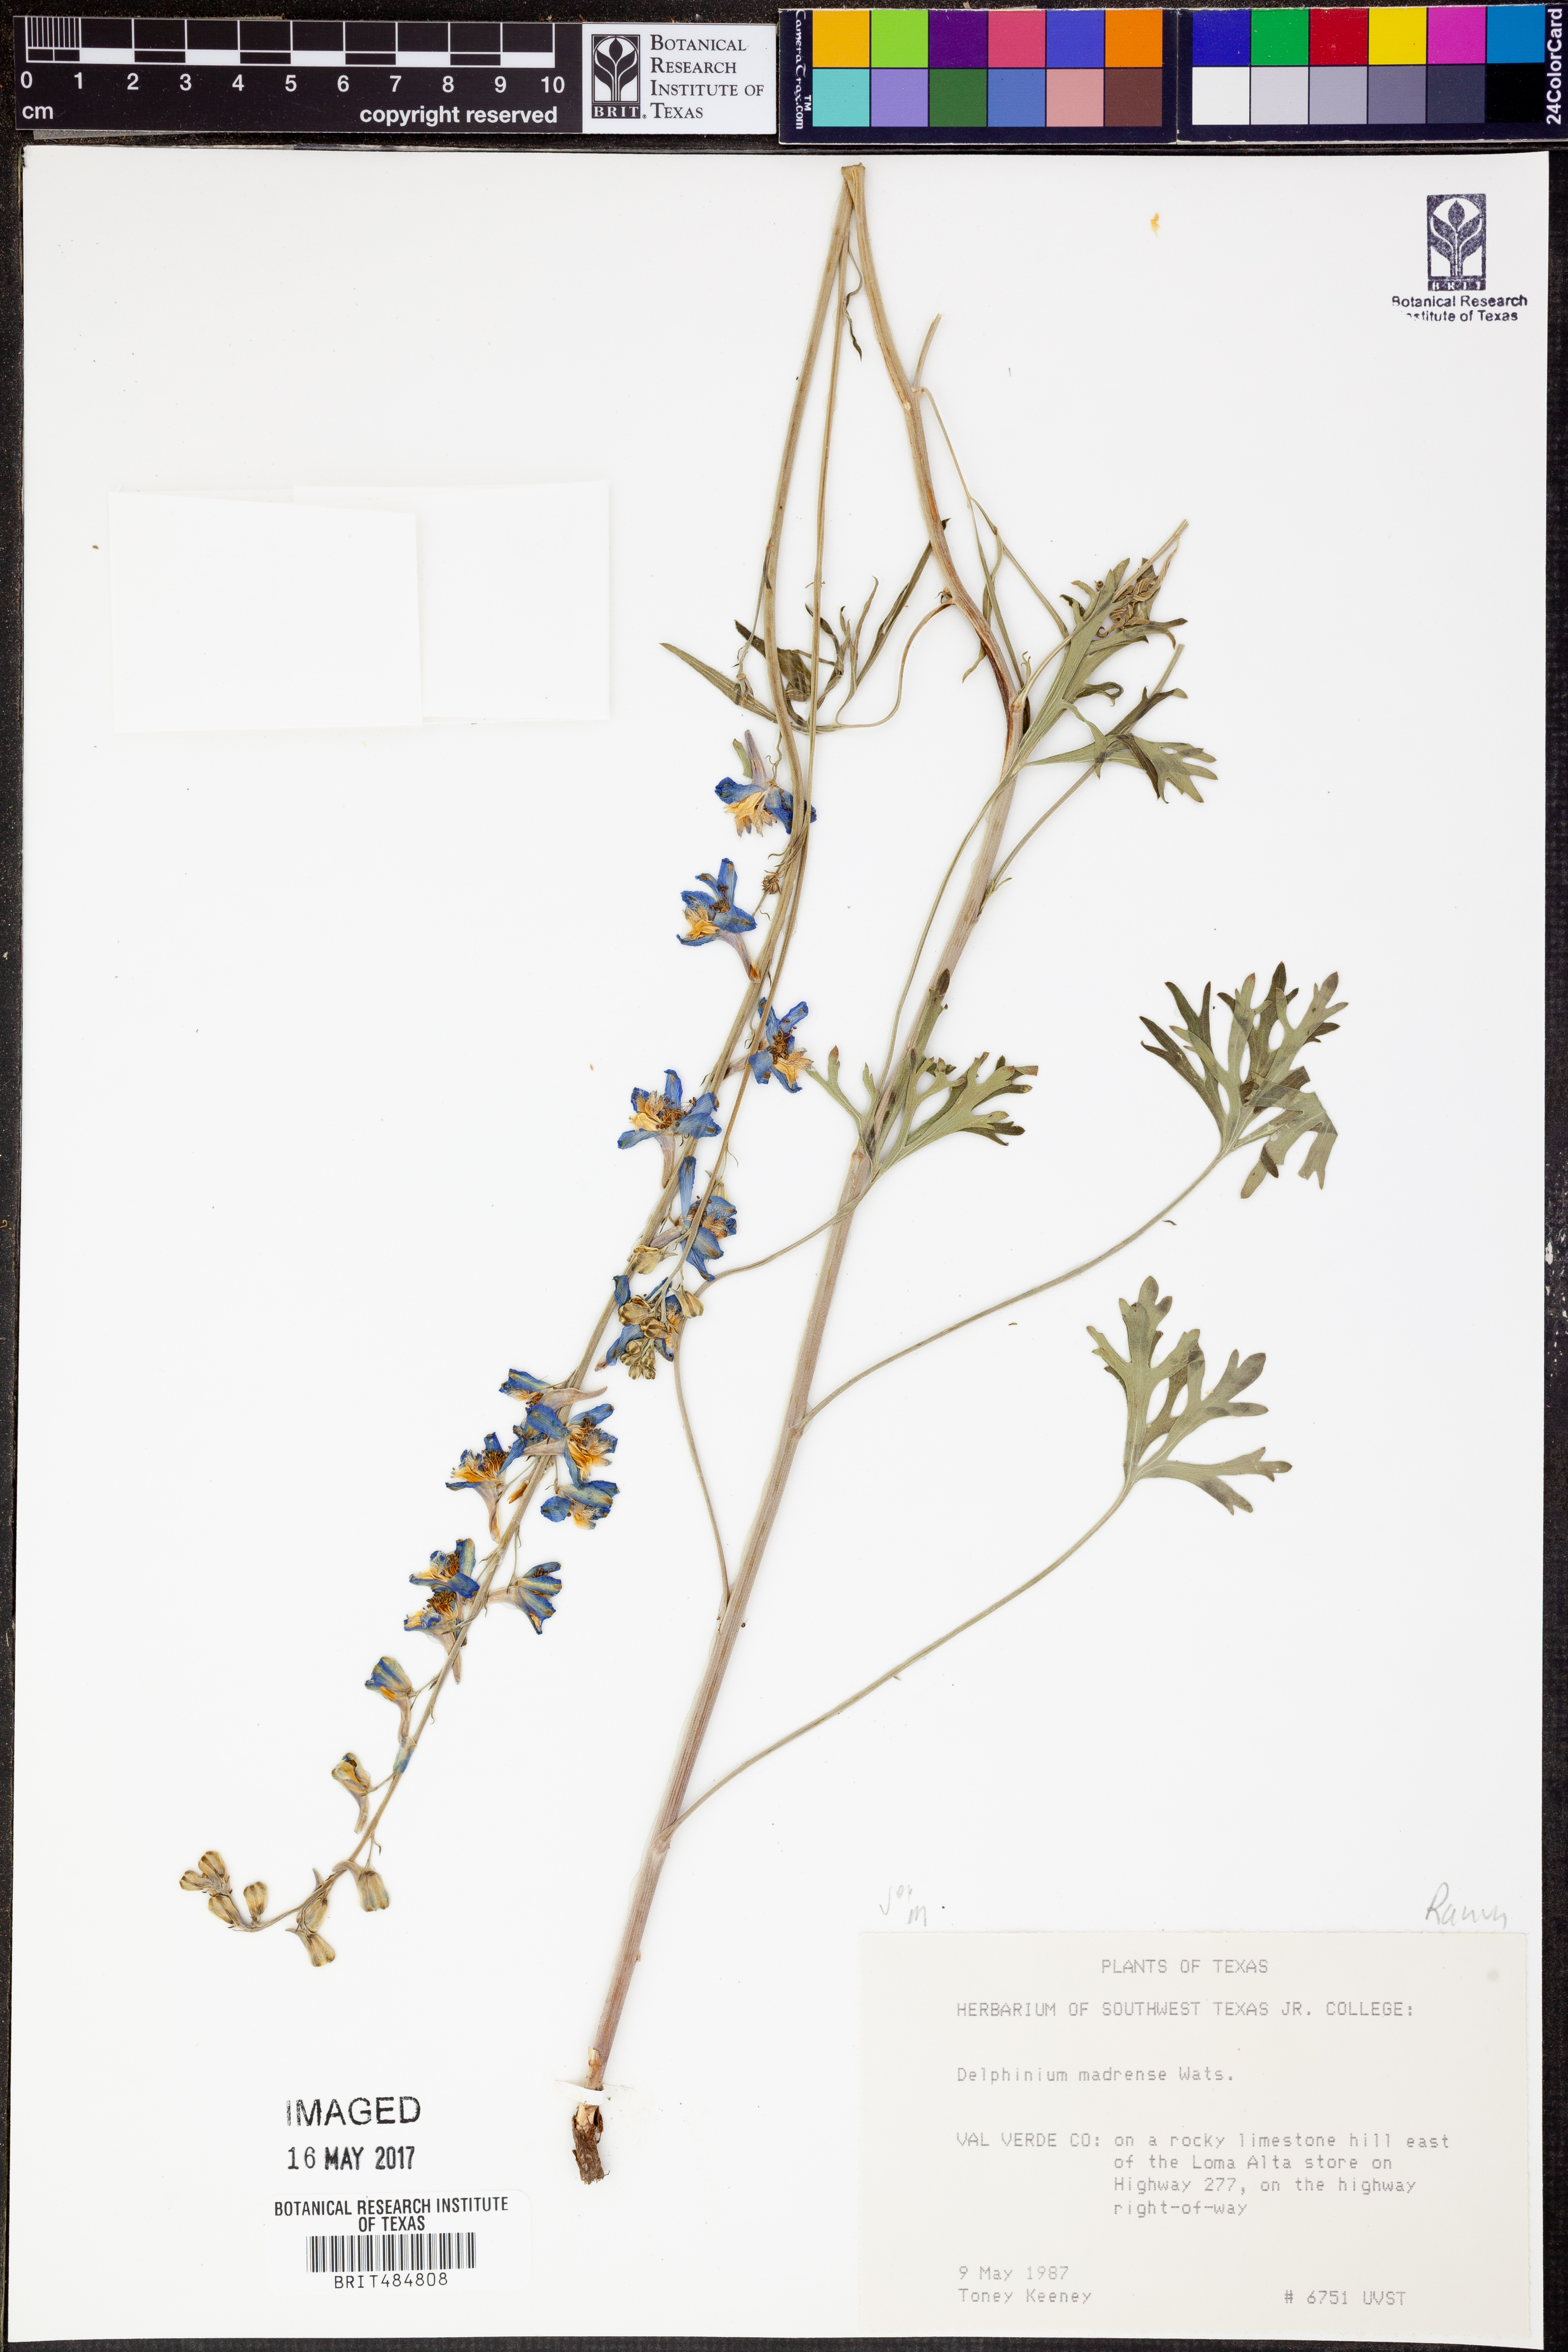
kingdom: Plantae
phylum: Tracheophyta
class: Magnoliopsida
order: Ranunculales
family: Ranunculaceae
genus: Delphinium
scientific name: Delphinium madrense
